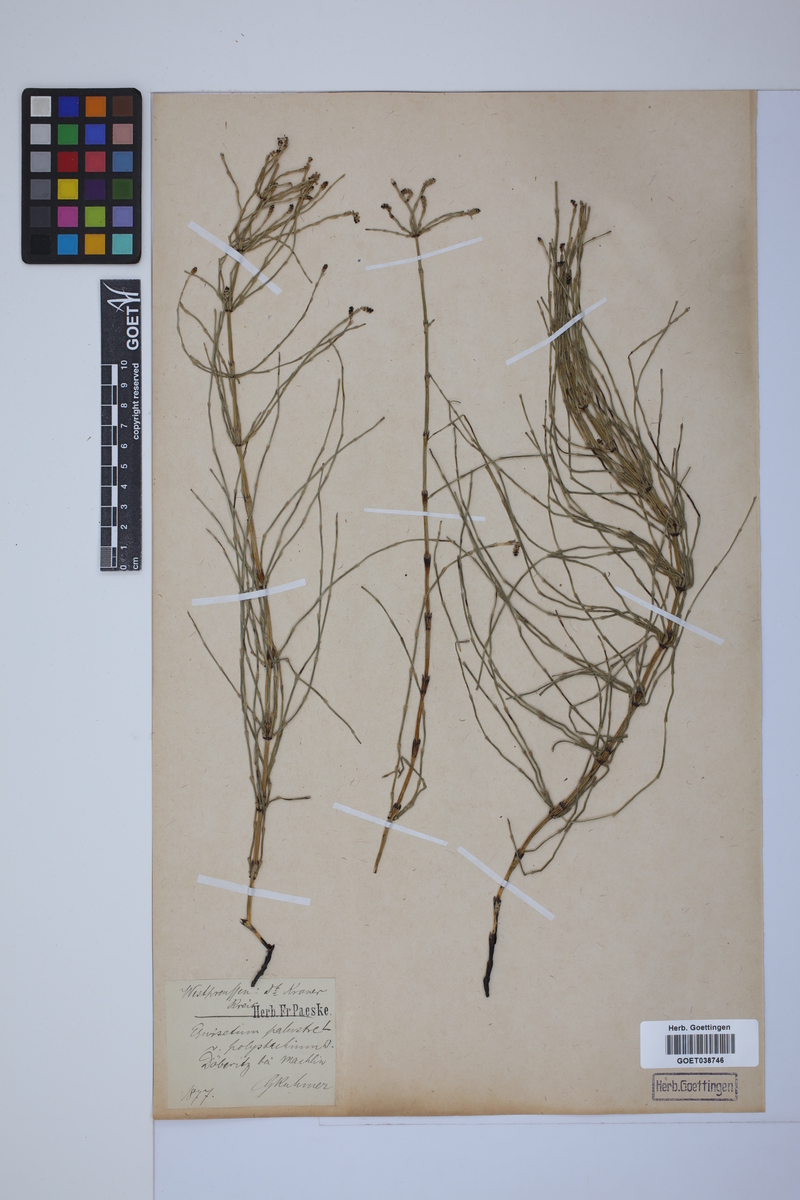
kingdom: Plantae
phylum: Tracheophyta
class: Polypodiopsida
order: Equisetales
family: Equisetaceae
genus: Equisetum
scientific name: Equisetum palustre
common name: Marsh horsetail
